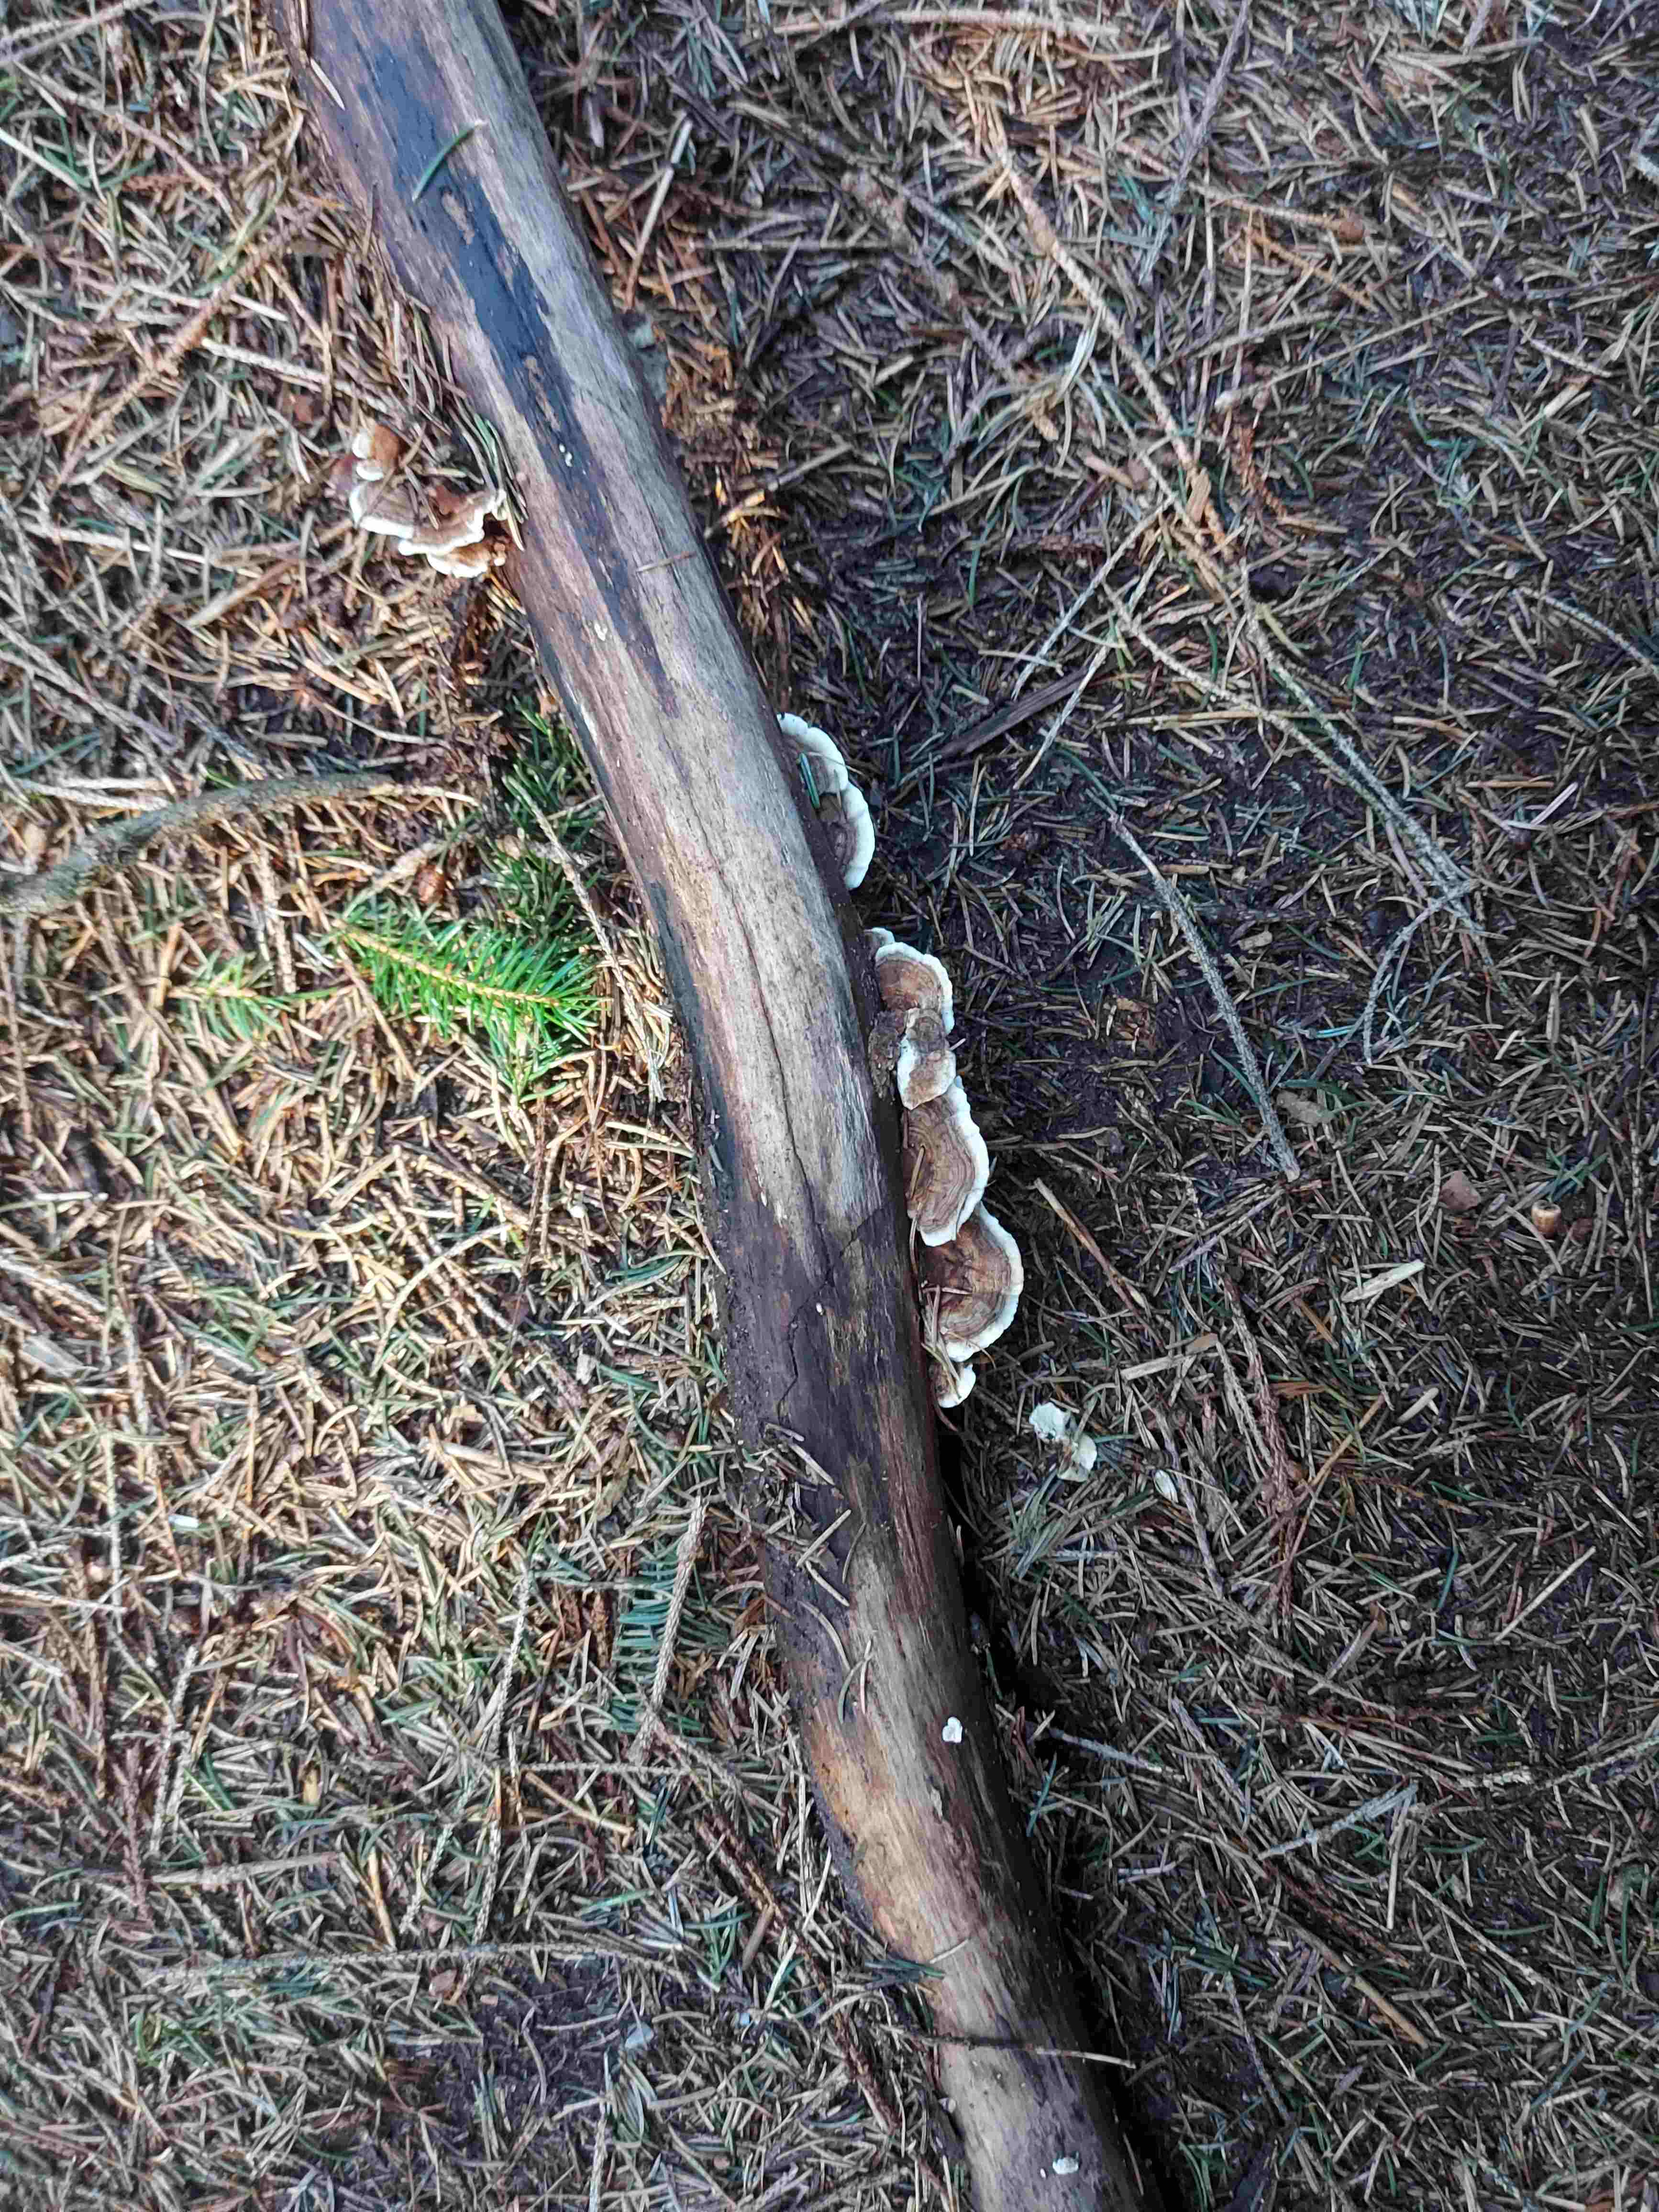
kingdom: Fungi
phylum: Basidiomycota
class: Agaricomycetes
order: Polyporales
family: Polyporaceae
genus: Trametes
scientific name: Trametes versicolor
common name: broget læderporesvamp
